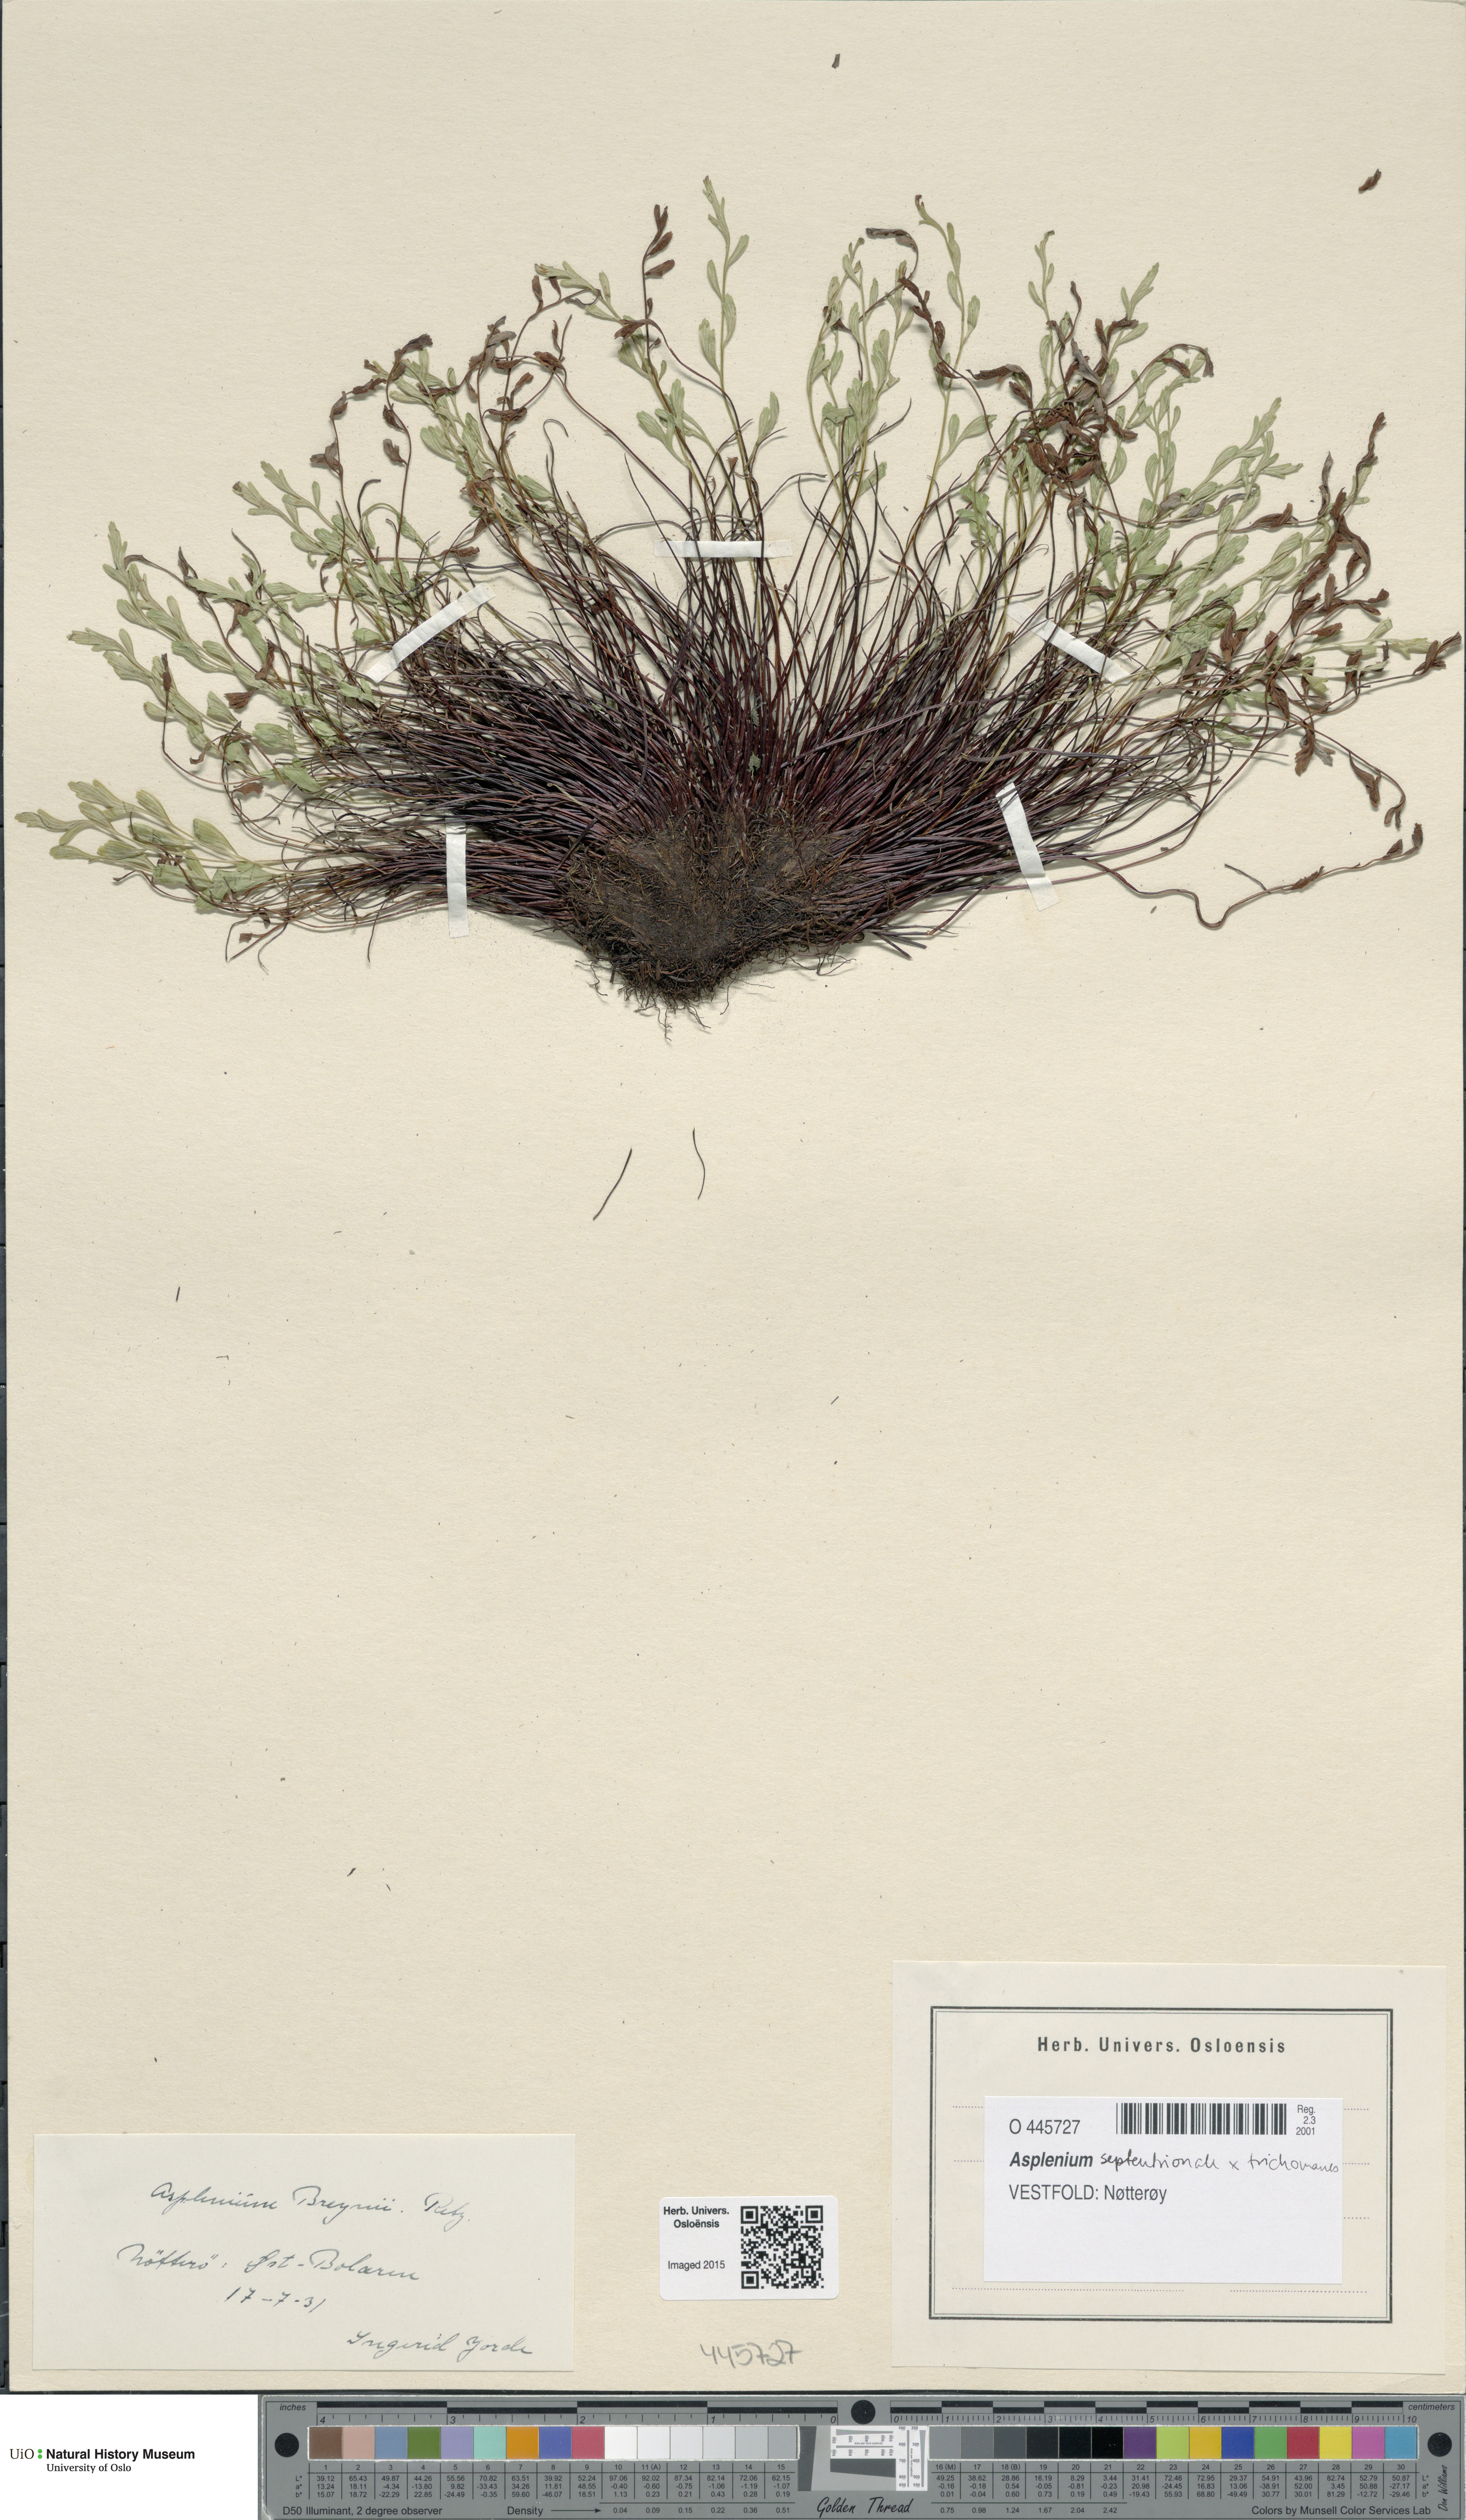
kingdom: Plantae
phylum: Tracheophyta
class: Polypodiopsida
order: Polypodiales
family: Aspleniaceae
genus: Asplenium
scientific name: Asplenium
